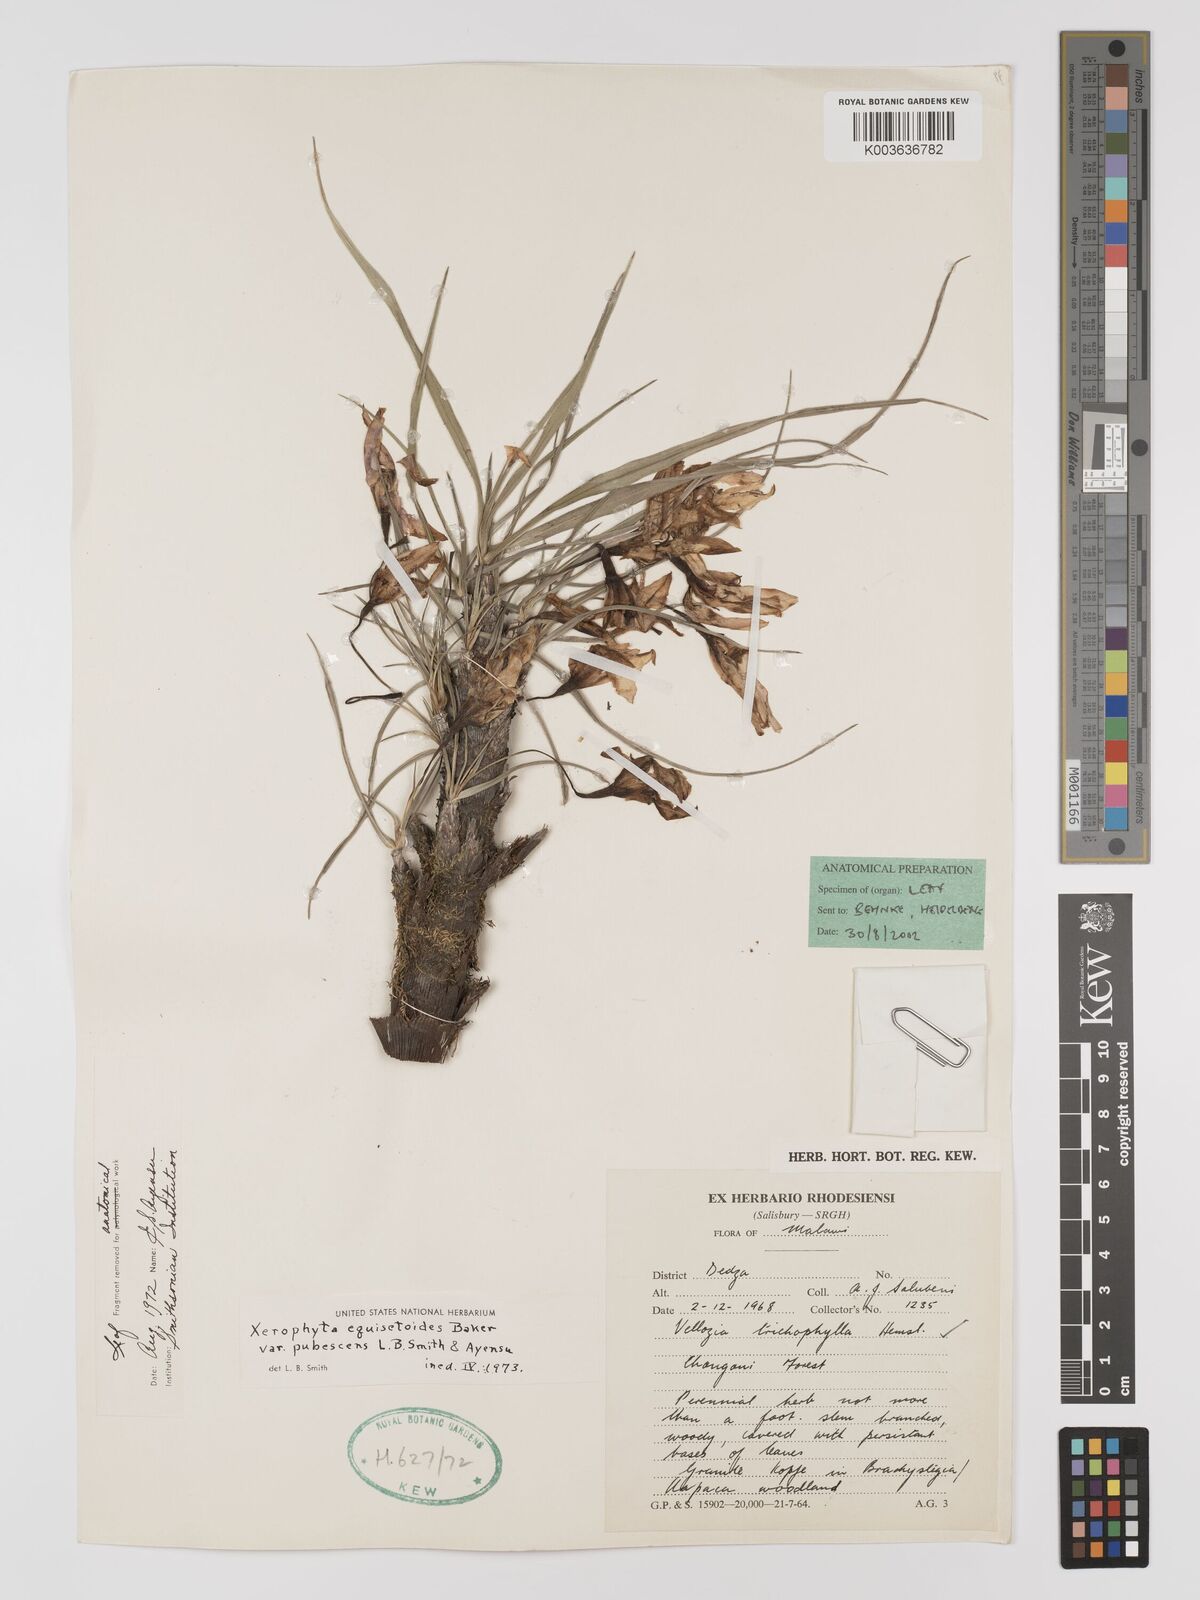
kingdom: Plantae
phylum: Tracheophyta
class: Liliopsida
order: Pandanales
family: Velloziaceae
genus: Xerophyta
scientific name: Xerophyta wentzeliana
